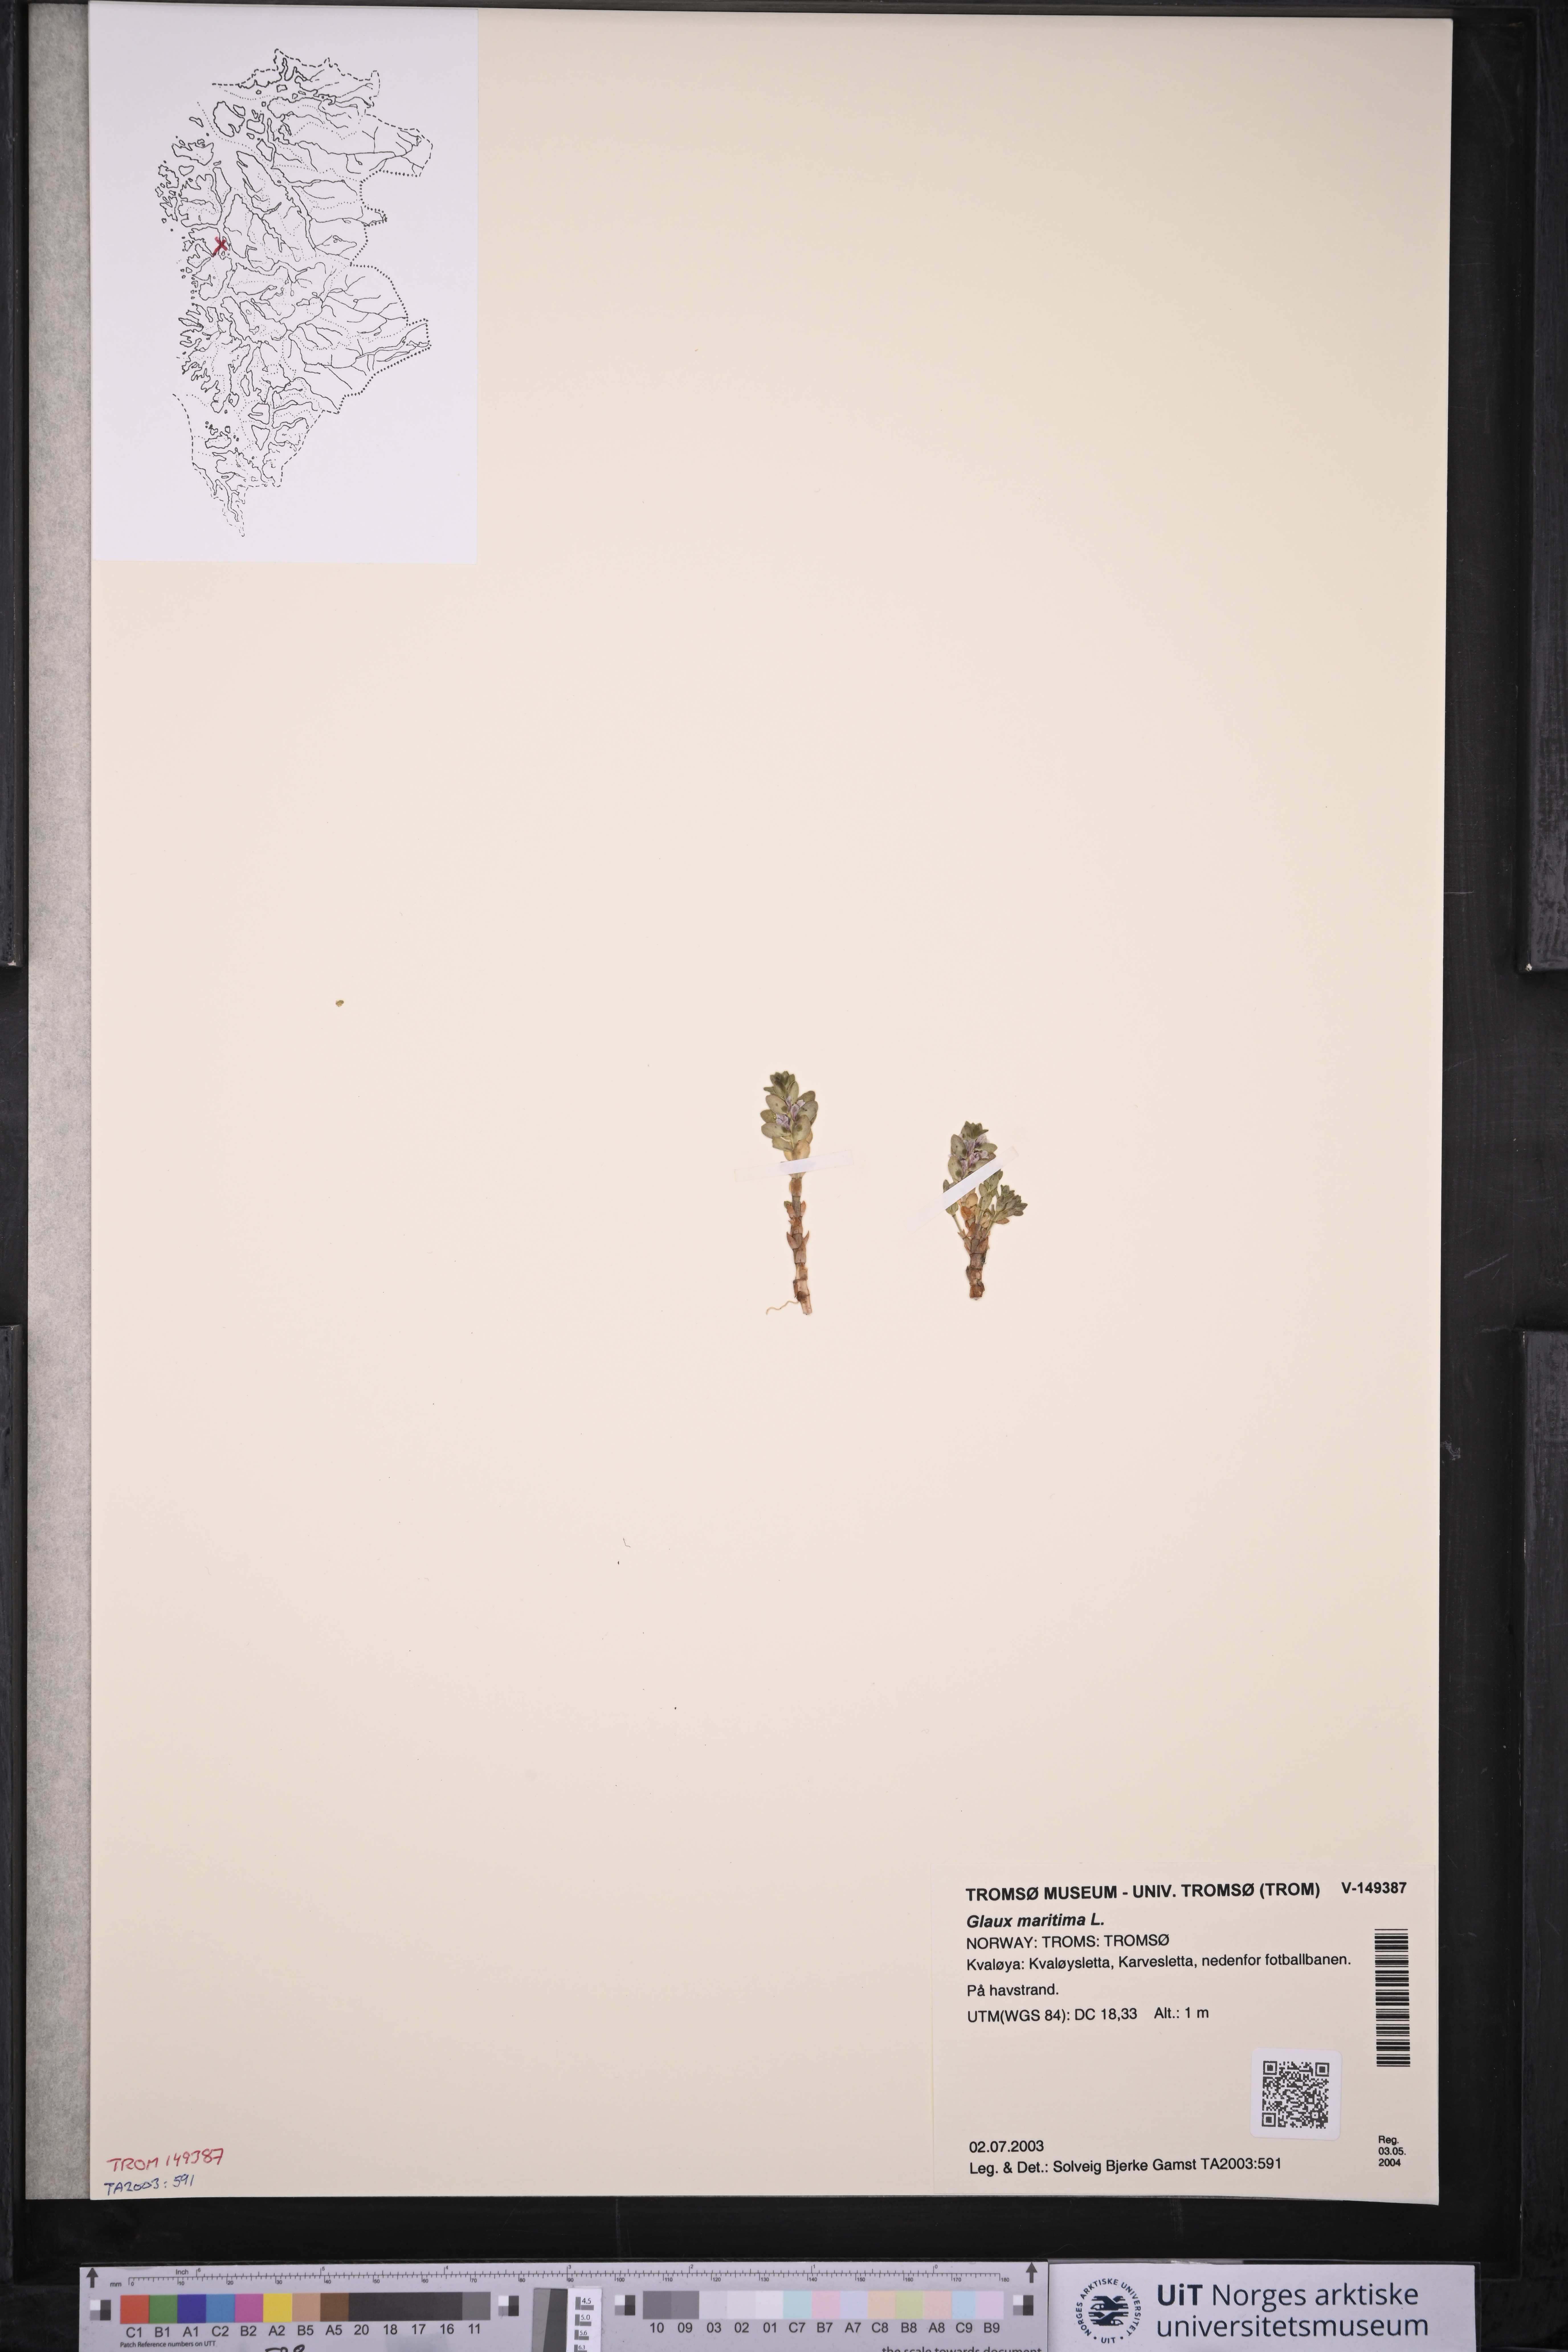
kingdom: Plantae
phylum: Tracheophyta
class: Magnoliopsida
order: Ericales
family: Primulaceae
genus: Lysimachia
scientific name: Lysimachia maritima
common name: Sea milkwort
